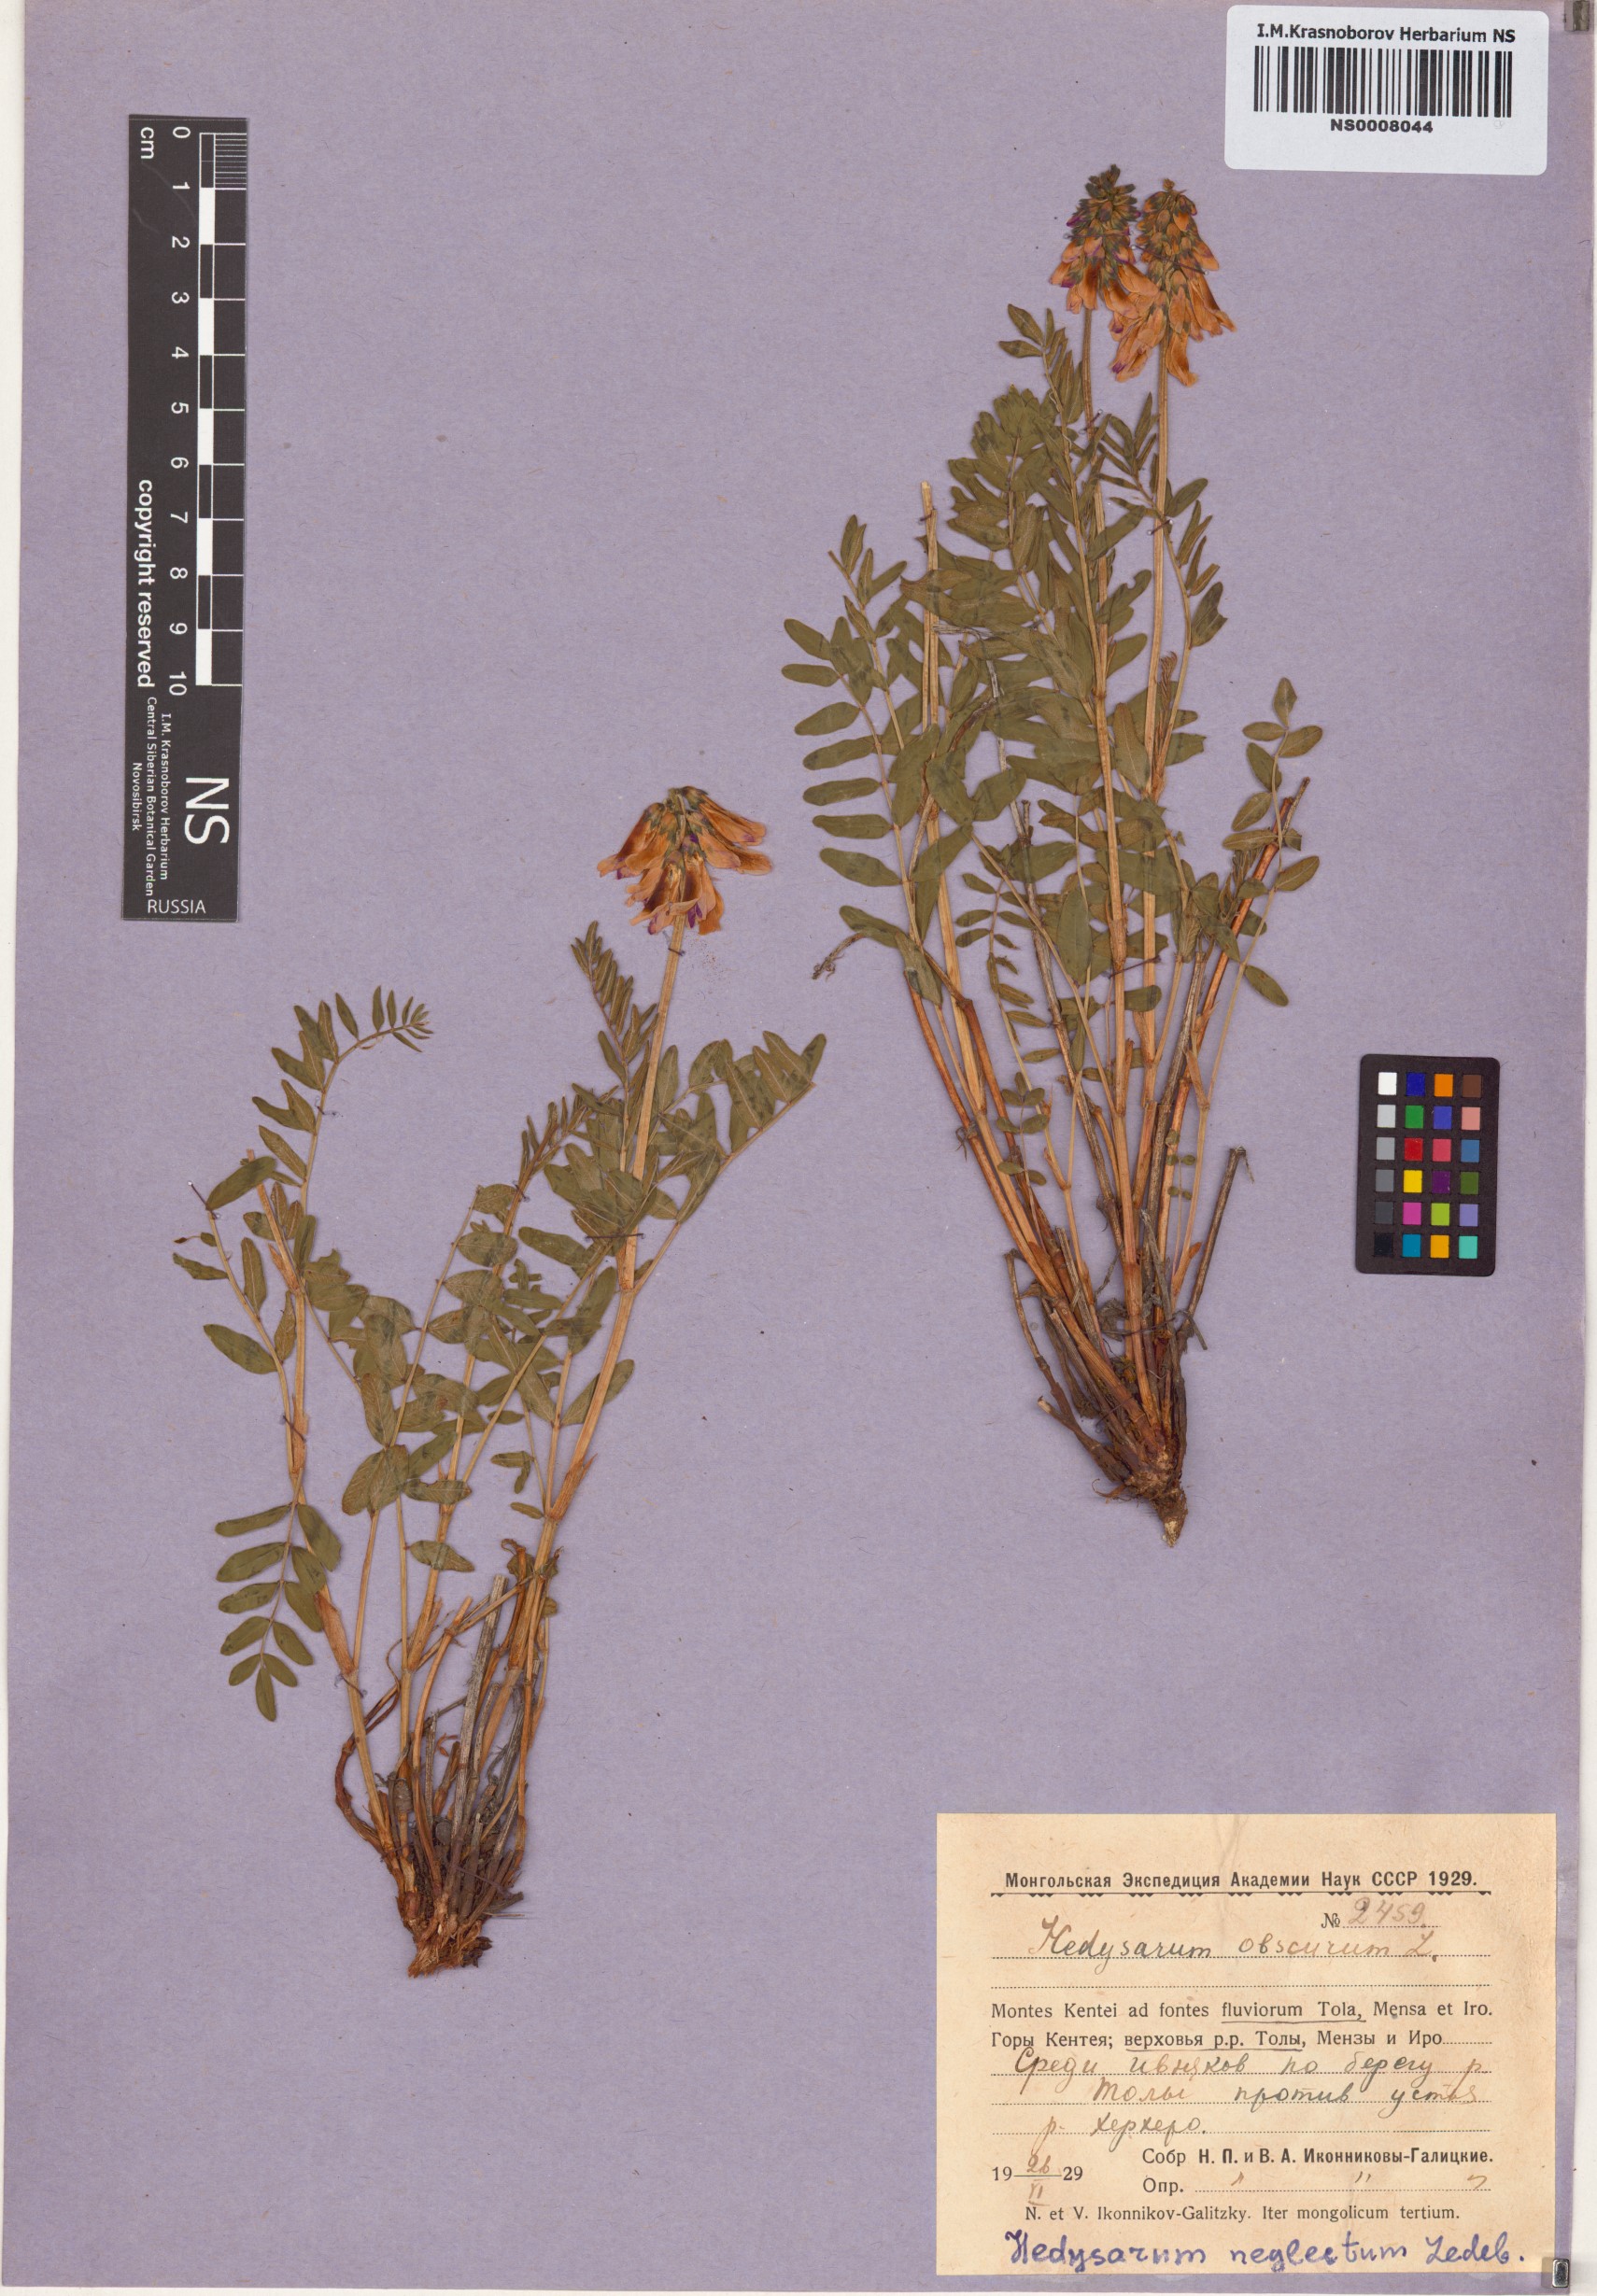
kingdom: Plantae
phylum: Tracheophyta
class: Magnoliopsida
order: Fabales
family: Fabaceae
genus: Hedysarum
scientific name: Hedysarum hedysaroides
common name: Alpine french-honeysuckle
